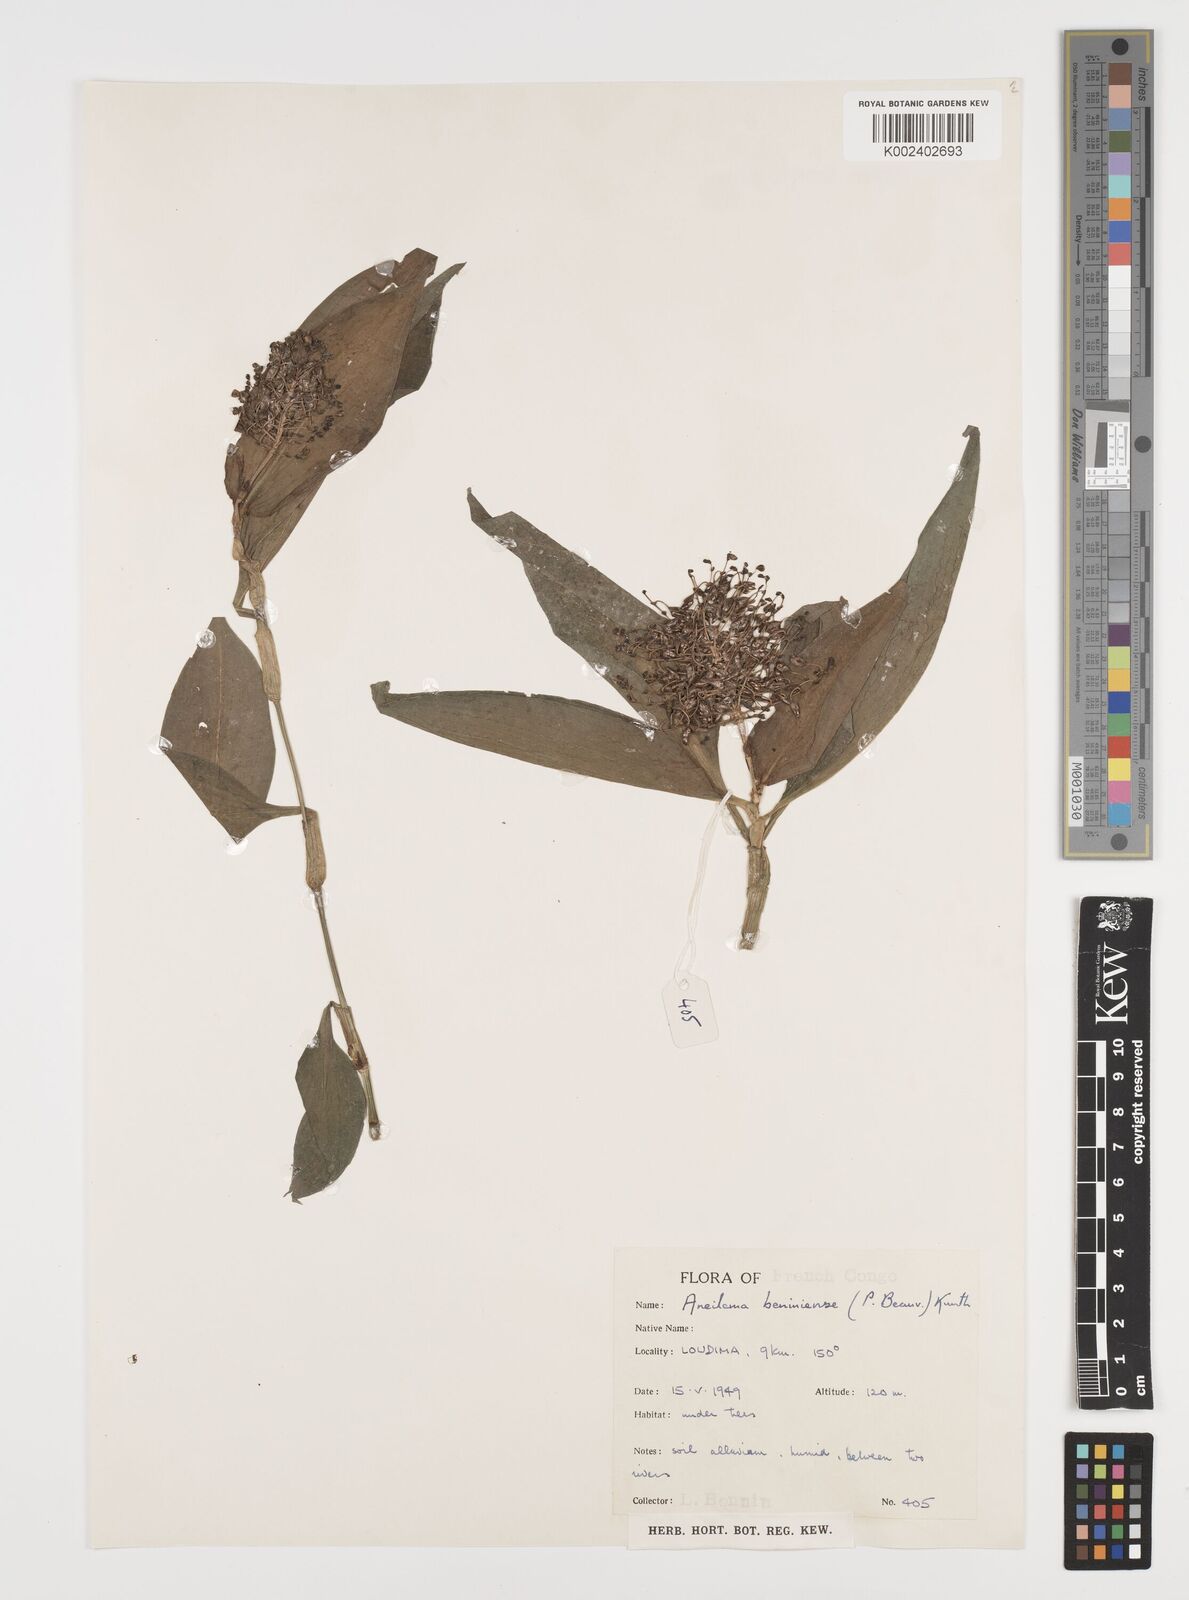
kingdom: Plantae
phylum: Tracheophyta
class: Liliopsida
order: Commelinales
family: Commelinaceae
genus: Aneilema
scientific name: Aneilema beniniense
